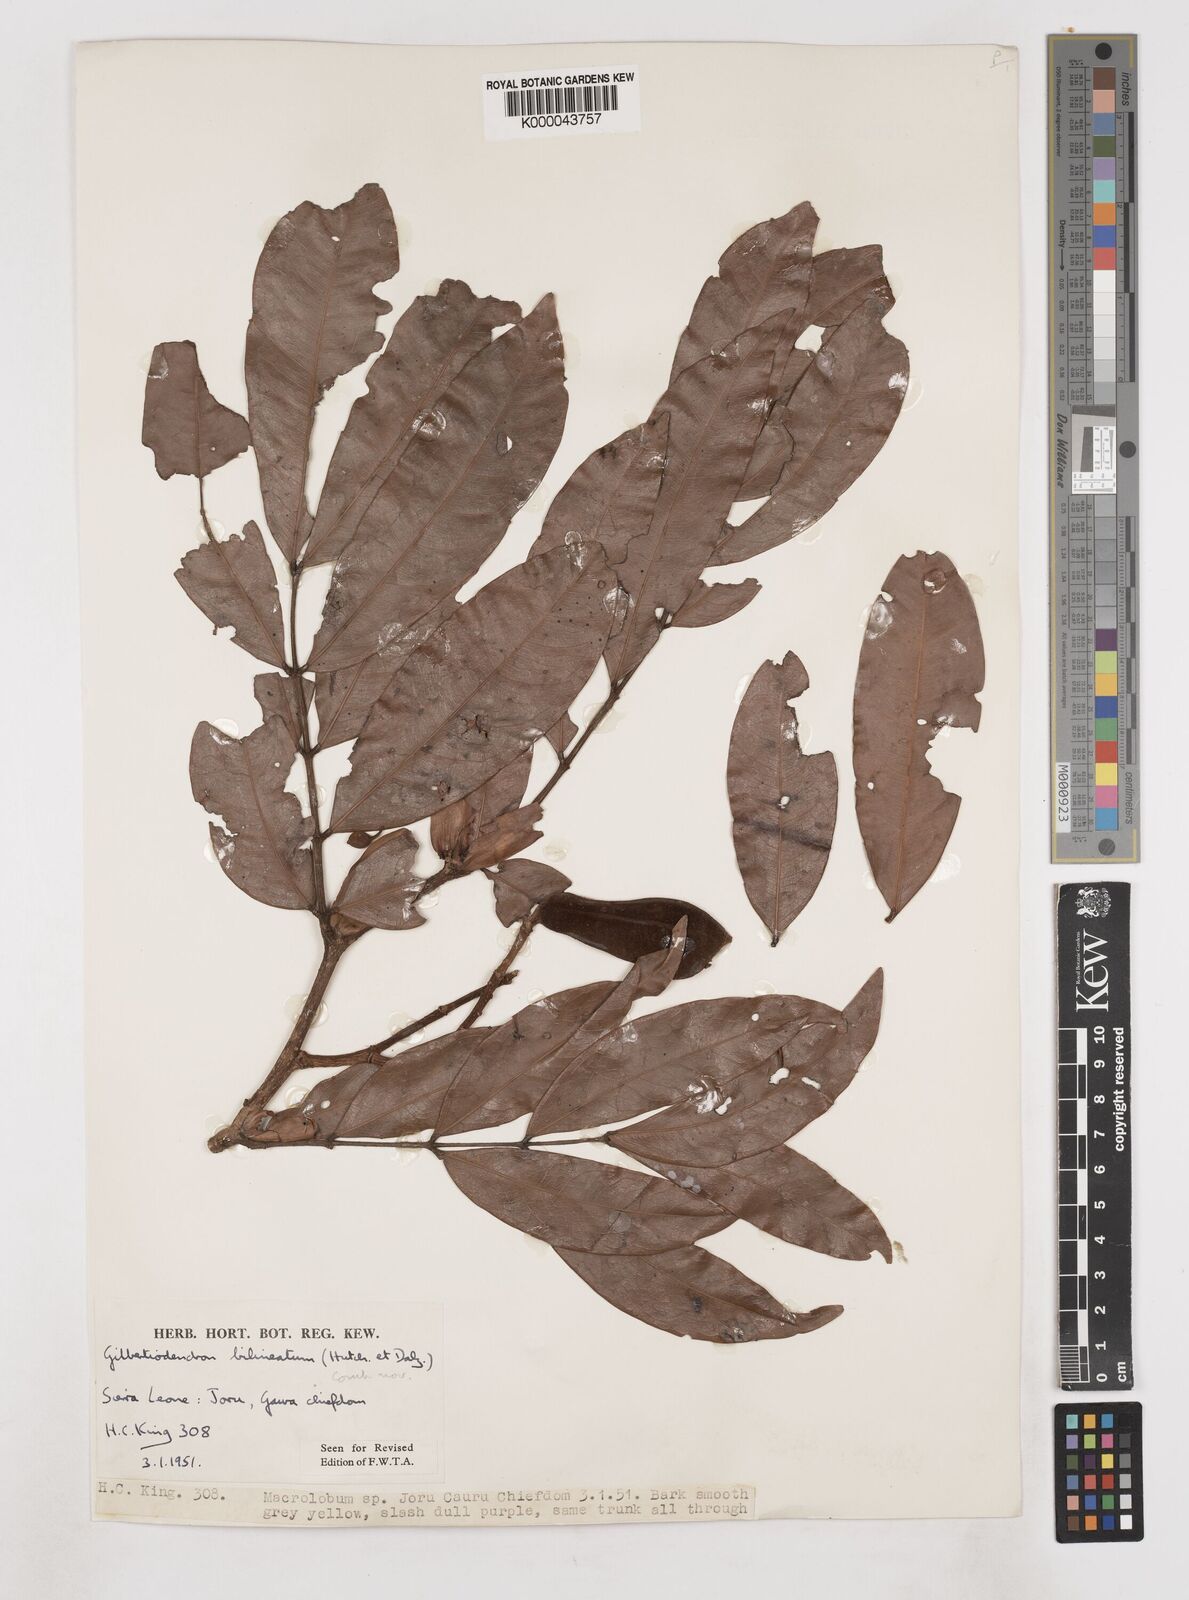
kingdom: Plantae
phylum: Tracheophyta
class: Magnoliopsida
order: Fabales
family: Fabaceae
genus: Gilbertiodendron
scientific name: Gilbertiodendron
